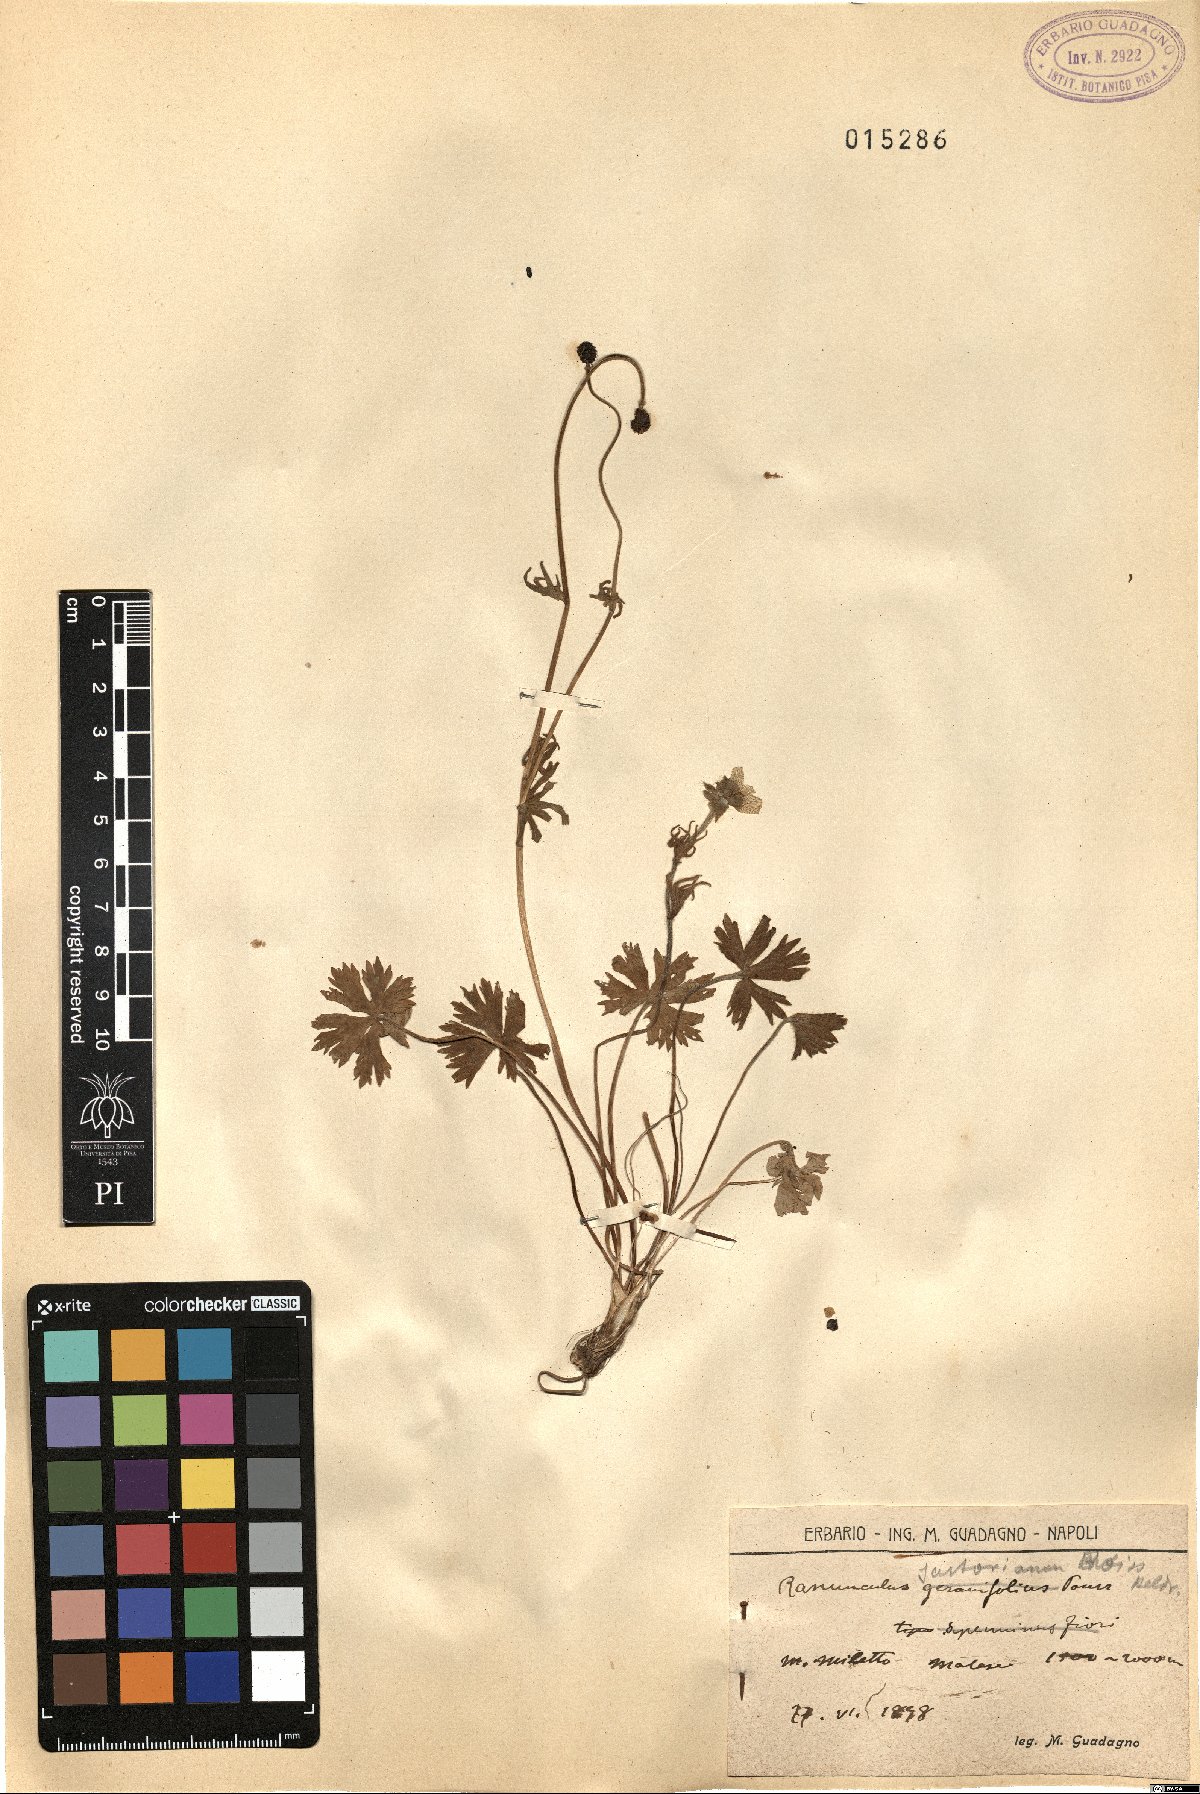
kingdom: Plantae
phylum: Tracheophyta
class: Magnoliopsida
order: Ranunculales
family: Ranunculaceae
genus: Ranunculus
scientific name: Ranunculus sartorianus
